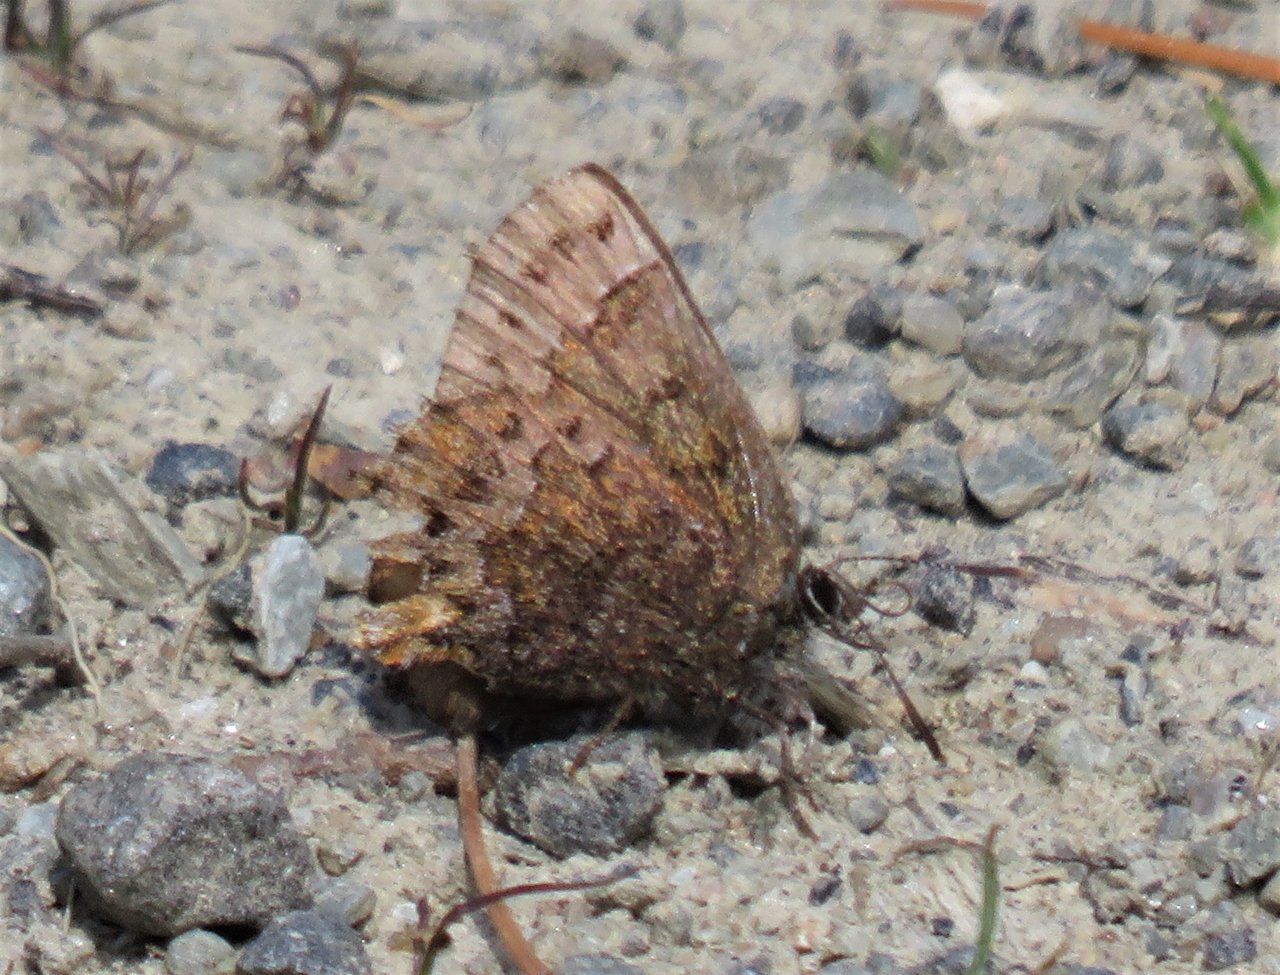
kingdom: Animalia
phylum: Arthropoda
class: Insecta
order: Lepidoptera
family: Lycaenidae
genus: Incisalia
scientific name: Incisalia niphon
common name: Eastern Pine Elfin
